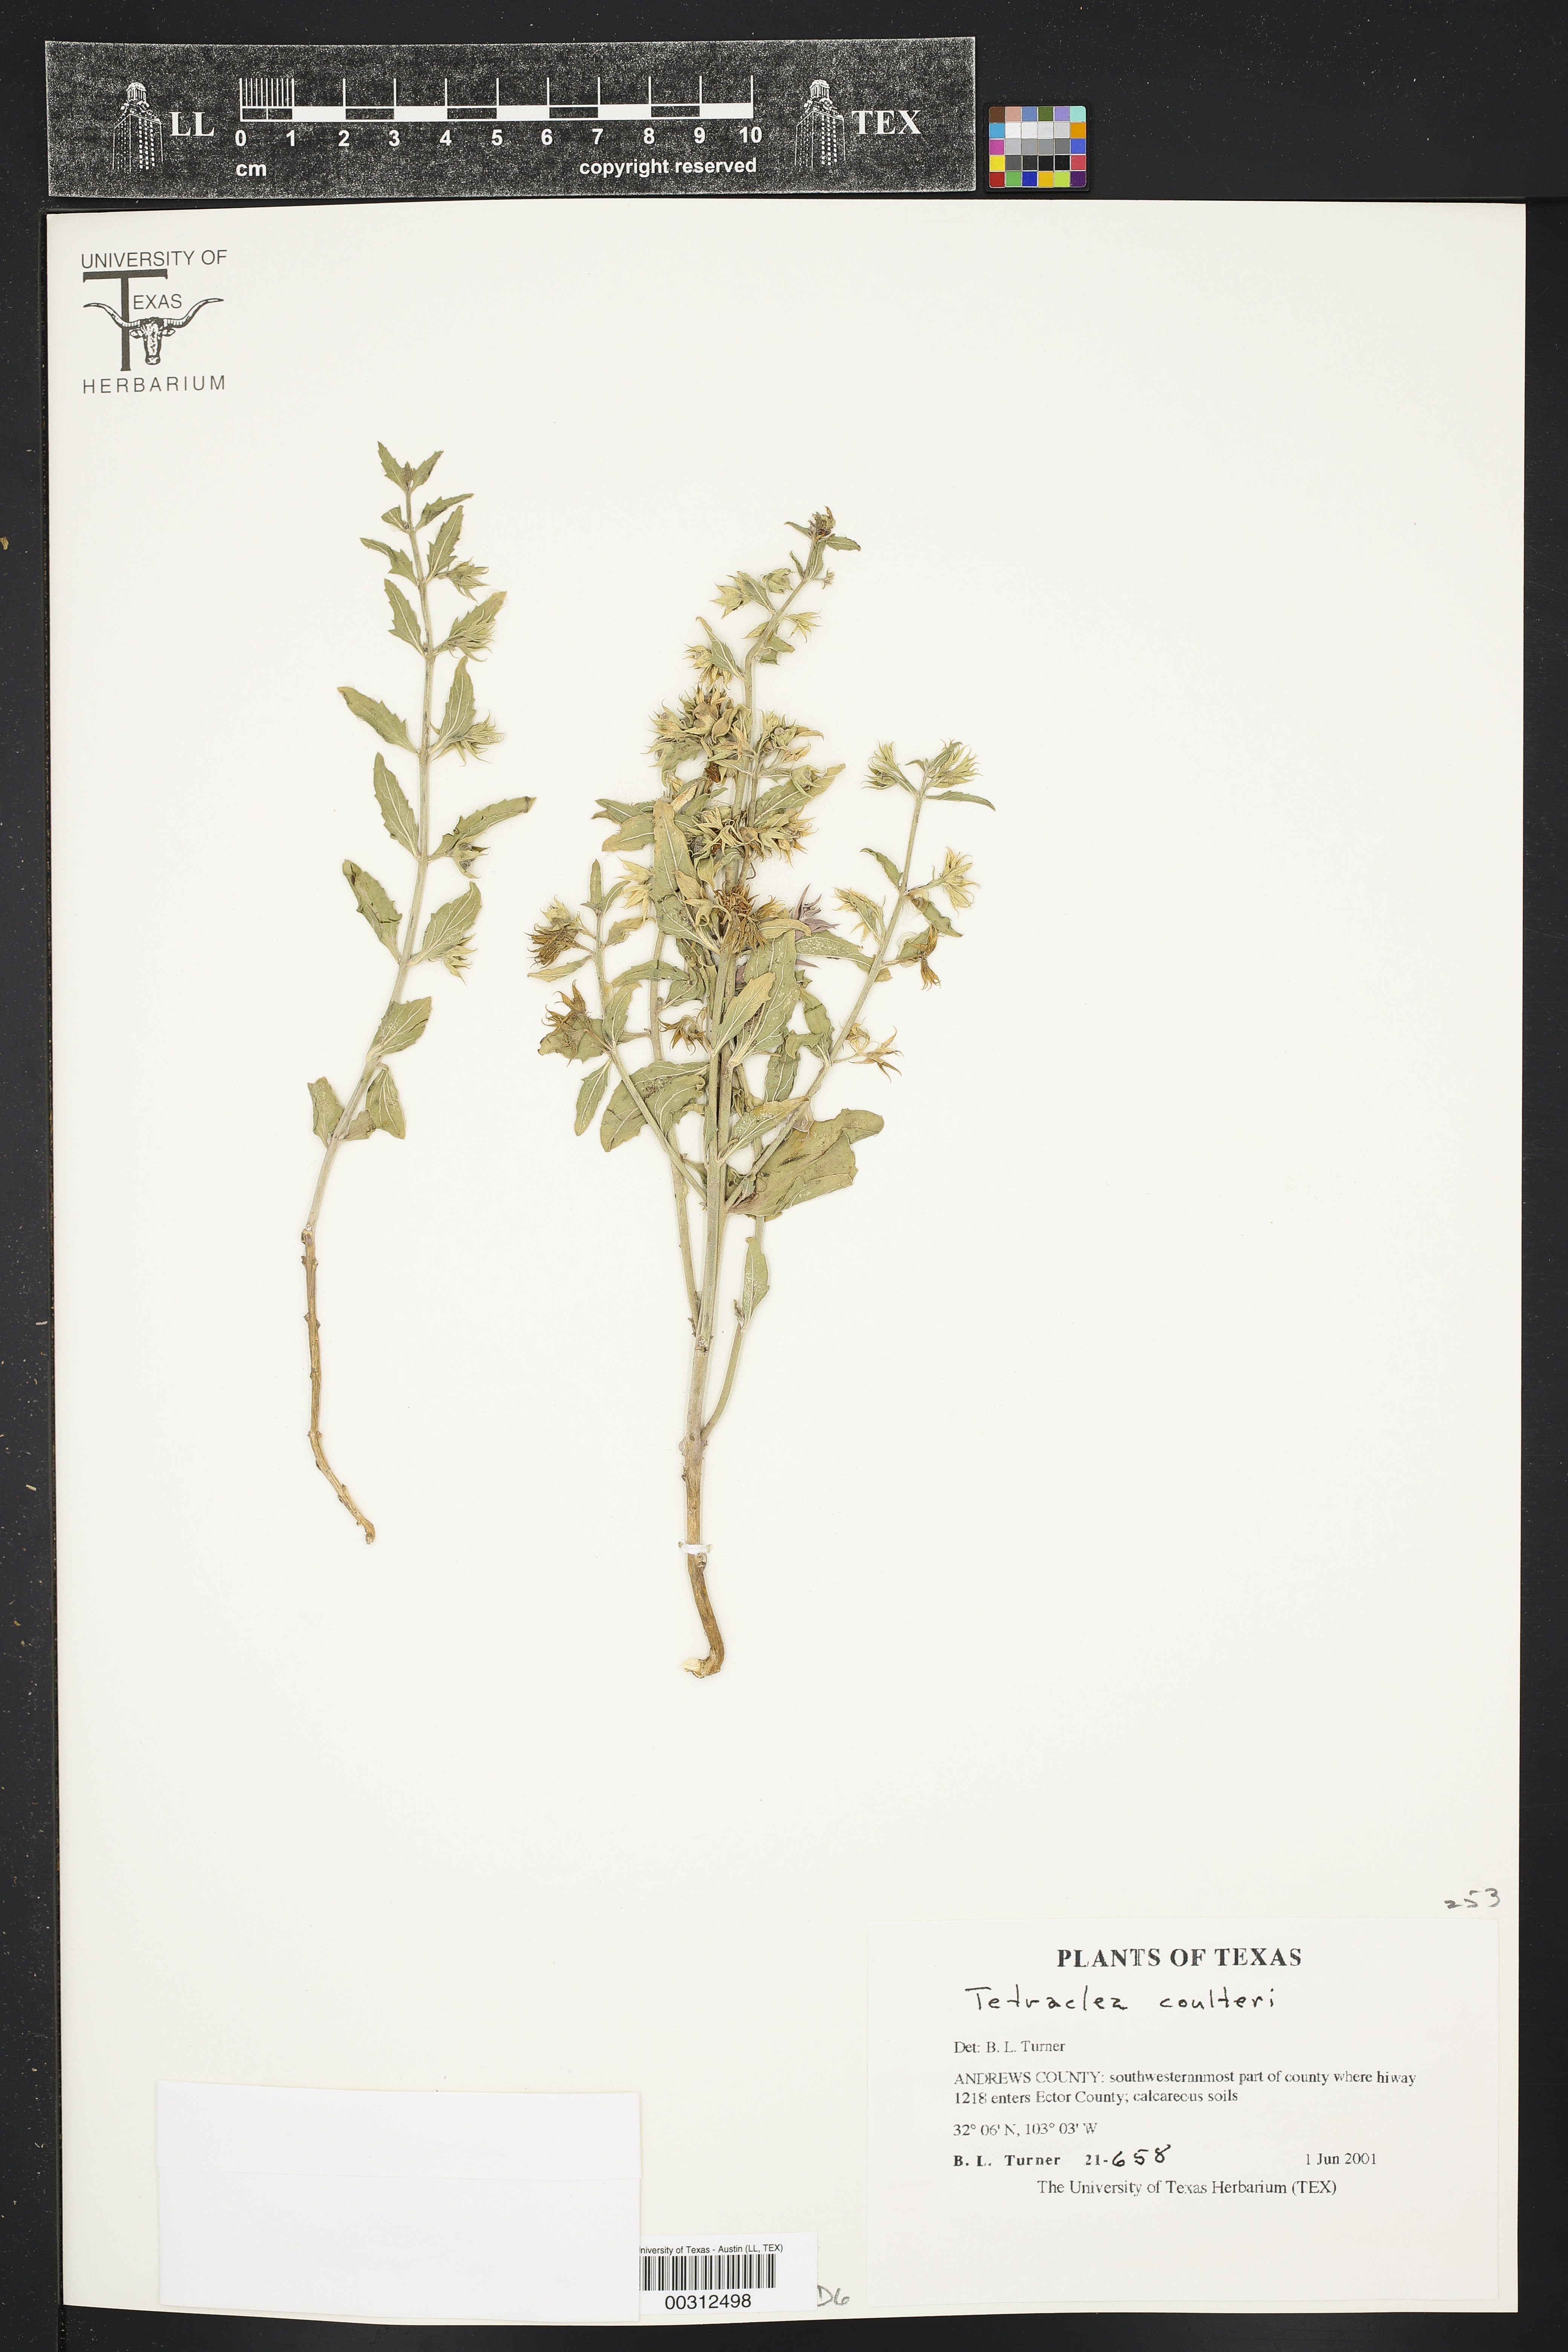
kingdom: Plantae
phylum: Tracheophyta
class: Magnoliopsida
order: Lamiales
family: Lamiaceae
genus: Tetraclea
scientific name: Tetraclea coulteri
